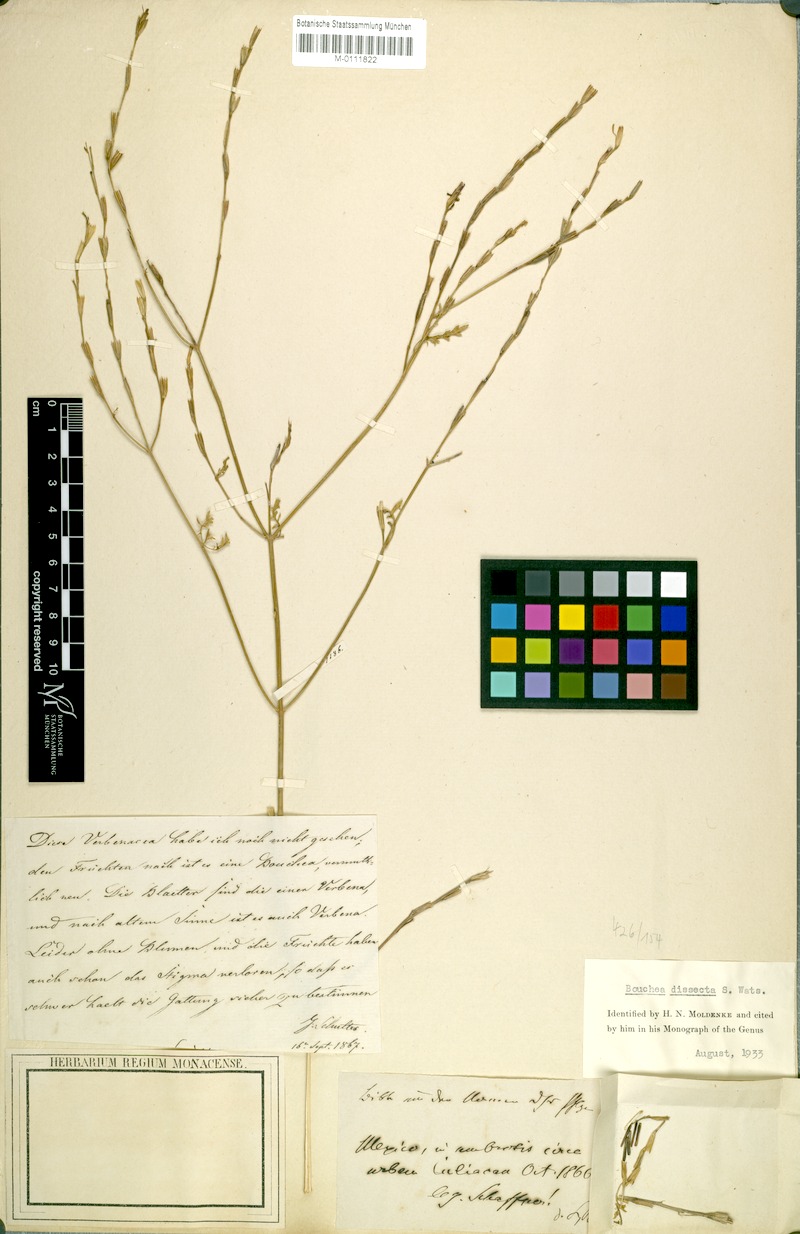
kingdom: Plantae
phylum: Tracheophyta
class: Magnoliopsida
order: Lamiales
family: Verbenaceae
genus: Bouchea
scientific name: Bouchea dissecta
